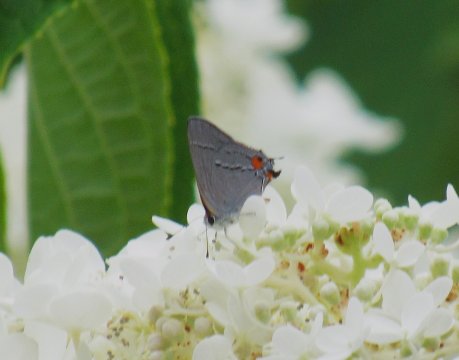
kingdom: Animalia
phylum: Arthropoda
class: Insecta
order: Lepidoptera
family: Lycaenidae
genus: Strymon
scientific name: Strymon melinus
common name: Gray Hairstreak
